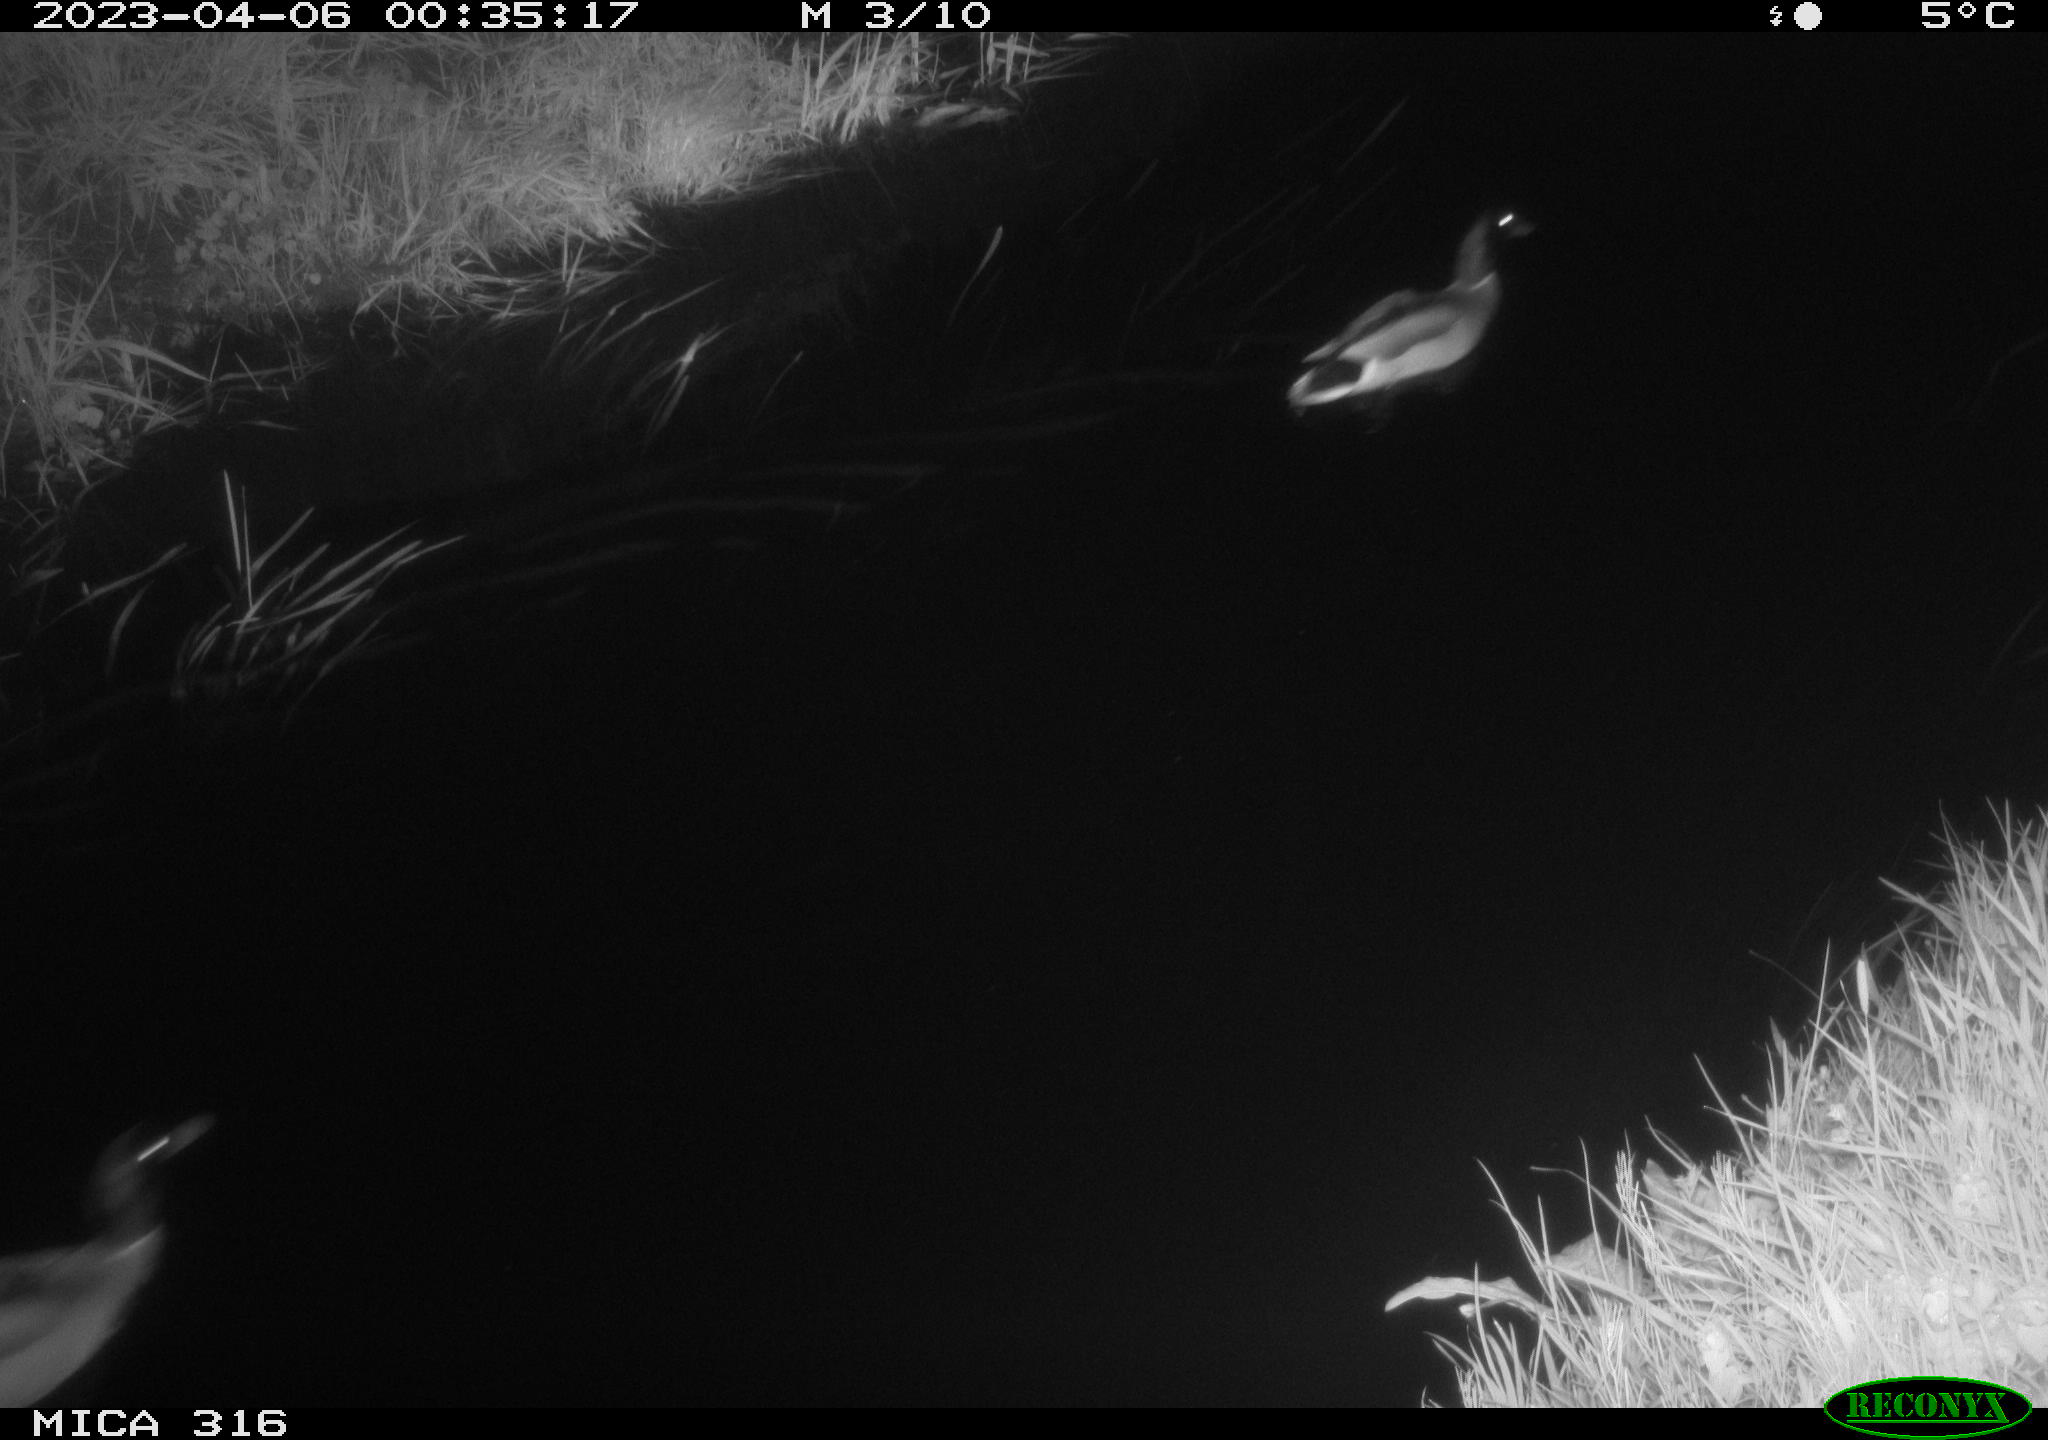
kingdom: Animalia
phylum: Chordata
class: Aves
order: Anseriformes
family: Anatidae
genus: Anas
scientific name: Anas
